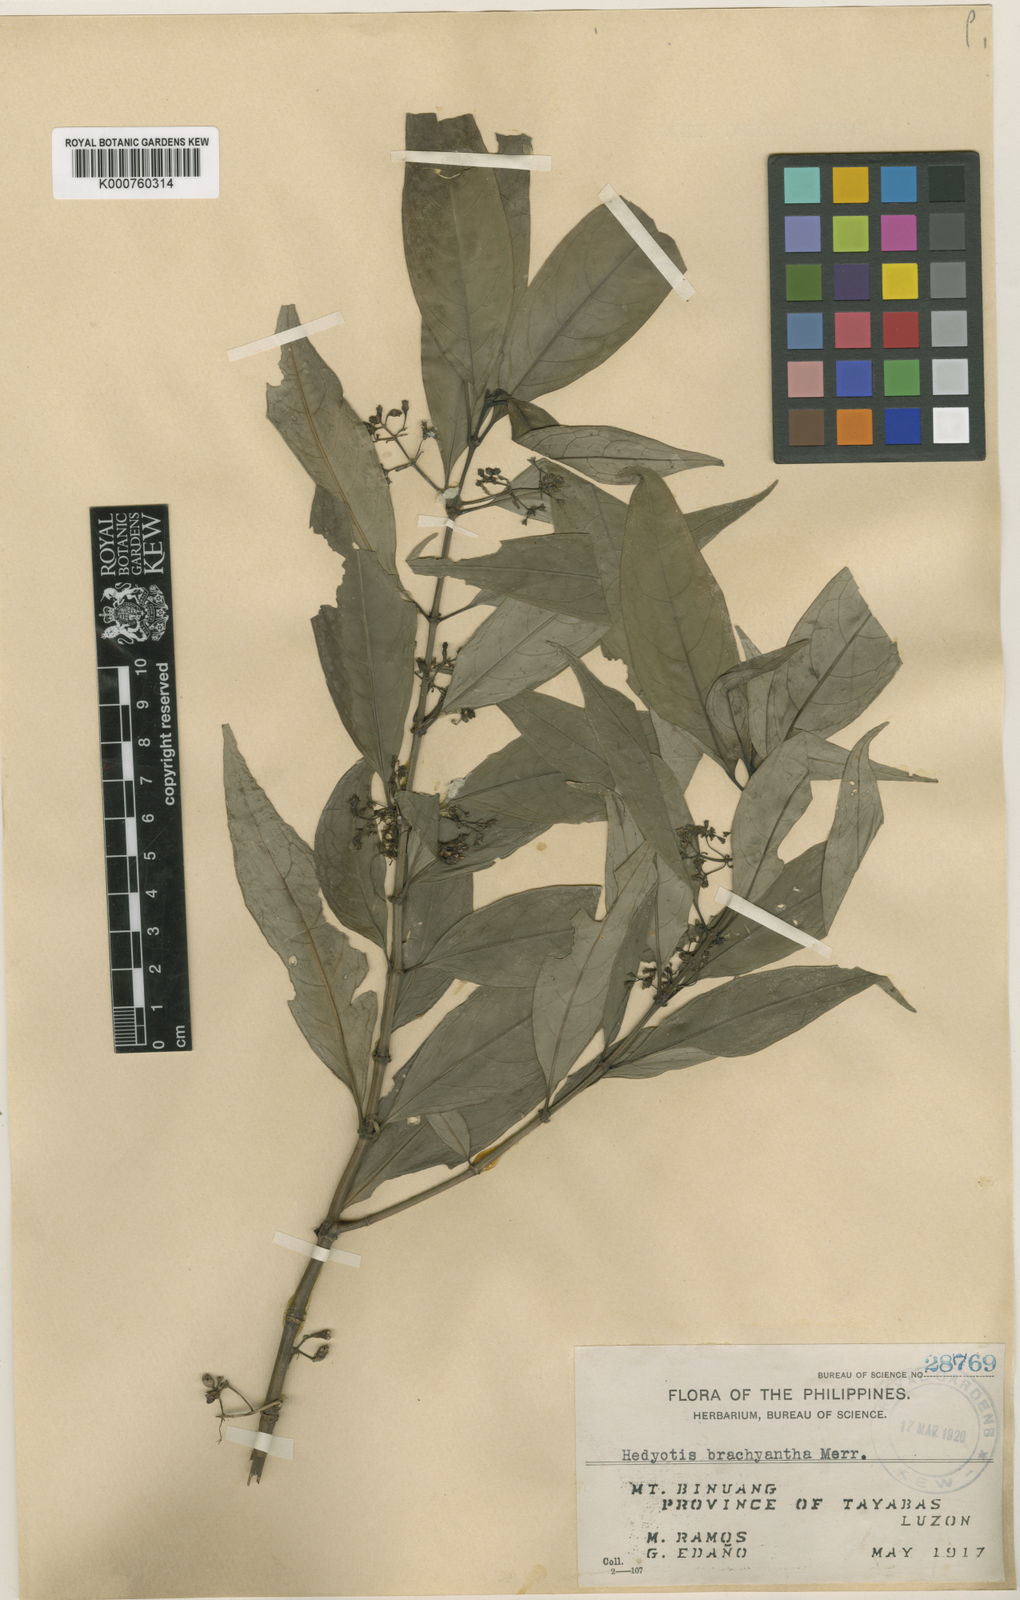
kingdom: Plantae
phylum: Tracheophyta
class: Magnoliopsida
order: Gentianales
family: Rubiaceae
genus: Hedyotis
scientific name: Hedyotis brachyantha
